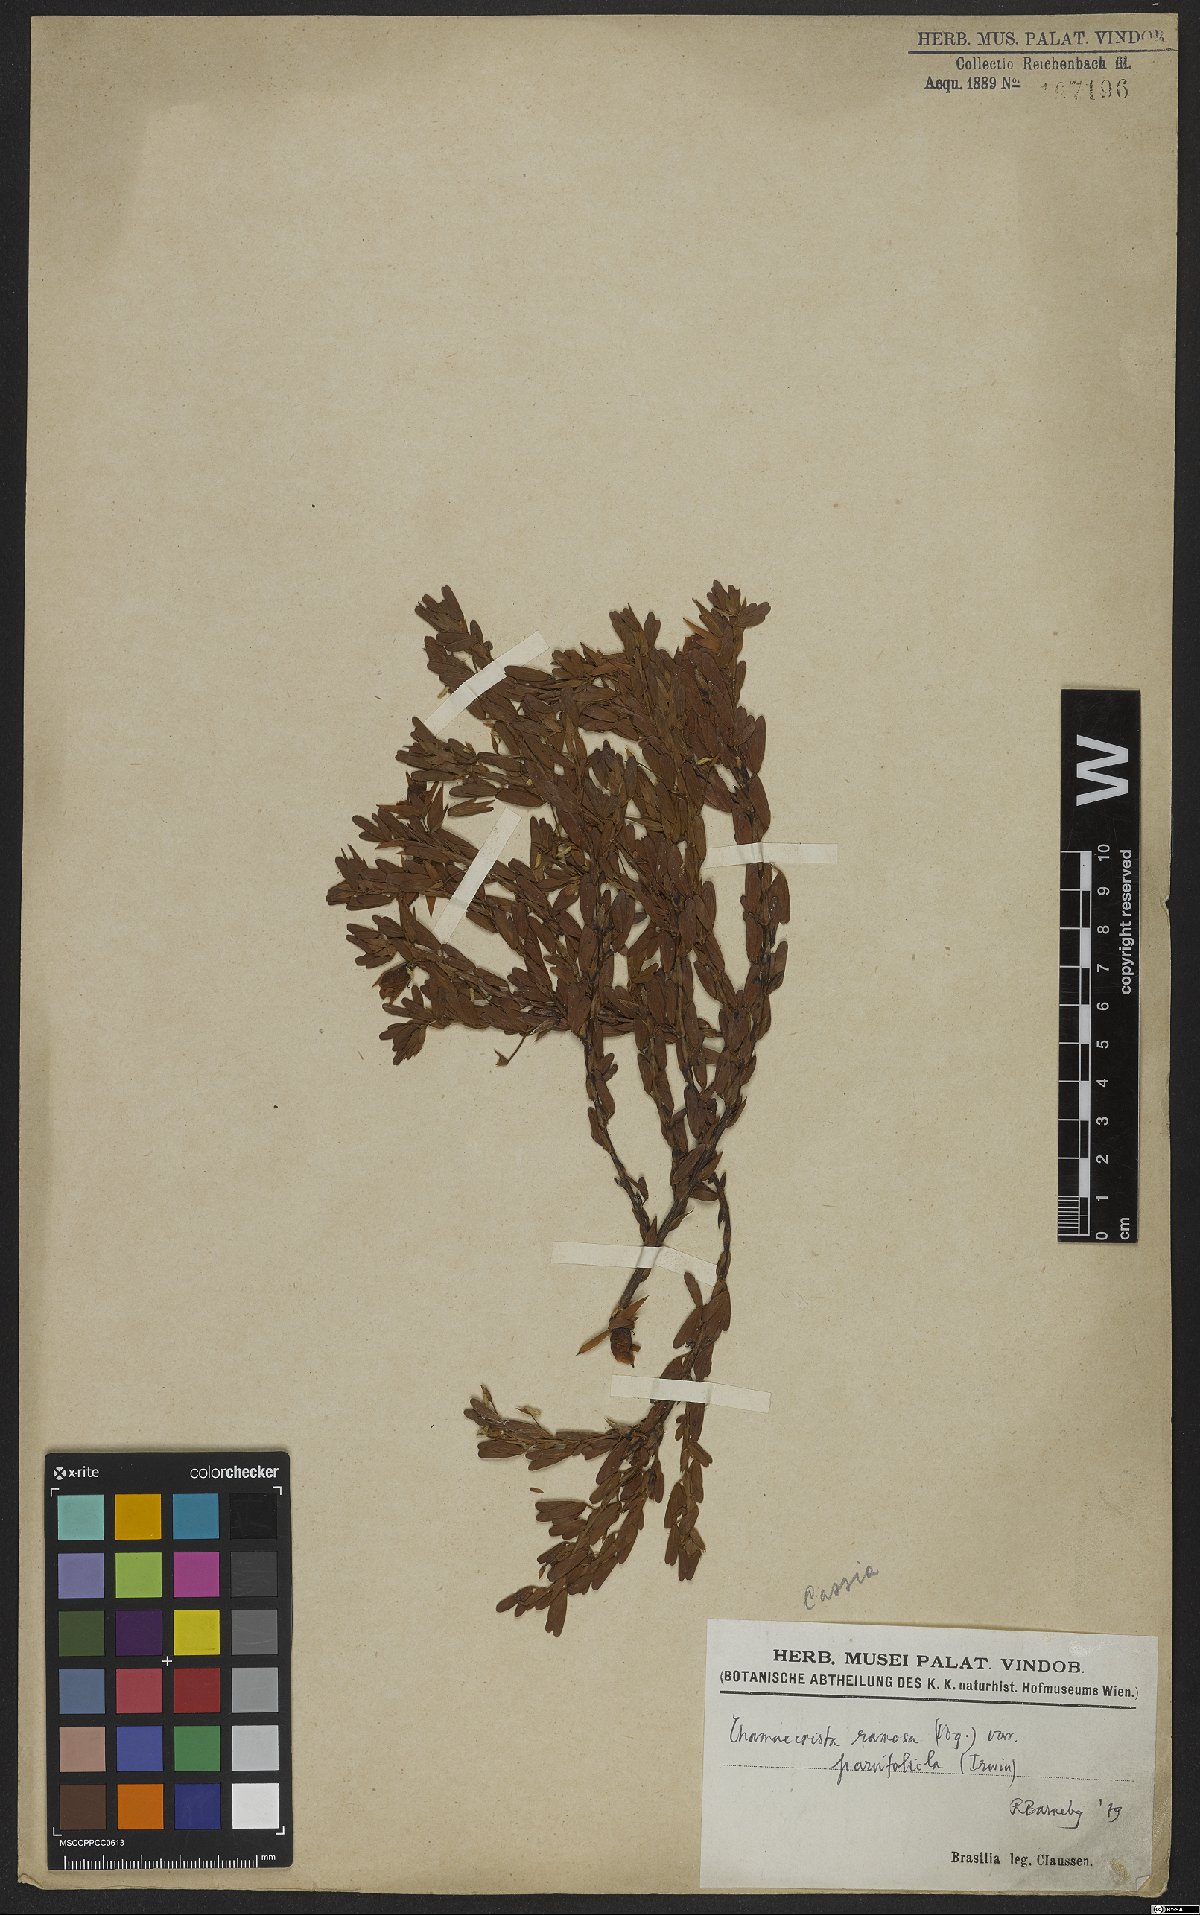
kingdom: Plantae
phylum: Tracheophyta
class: Magnoliopsida
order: Fabales
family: Fabaceae
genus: Chamaecrista
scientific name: Chamaecrista ramosa
